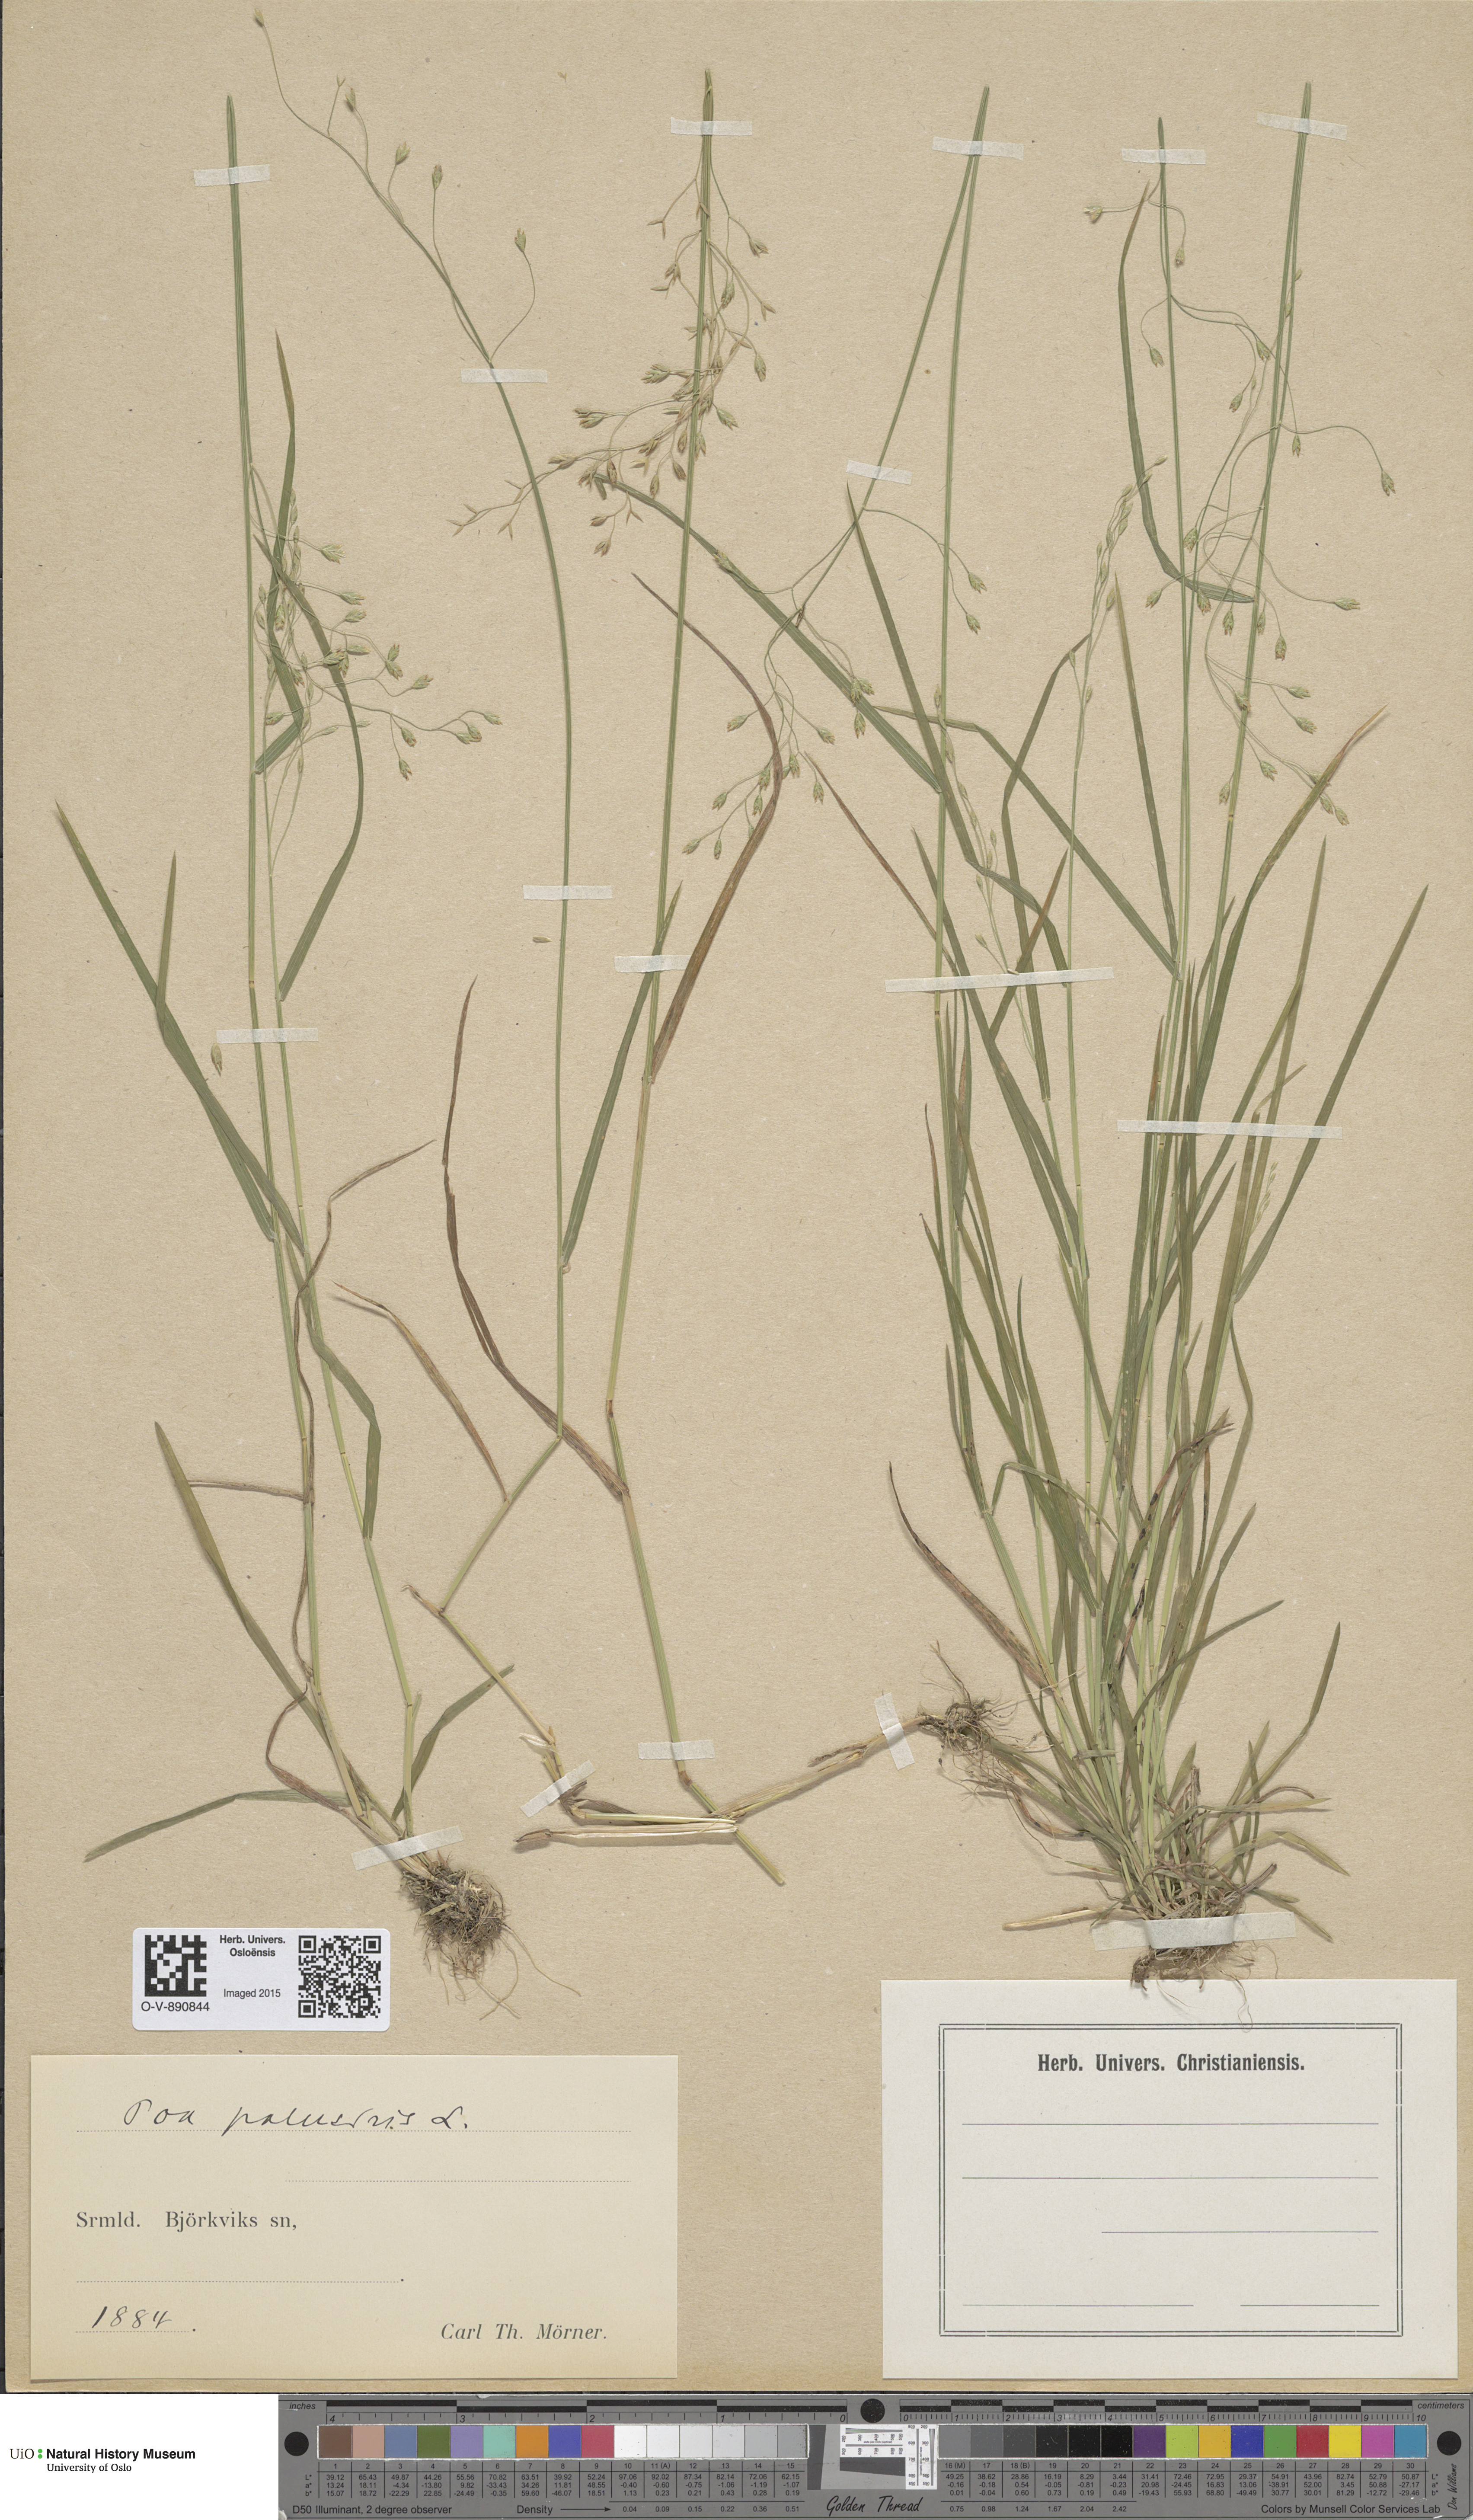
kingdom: Plantae
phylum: Tracheophyta
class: Liliopsida
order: Poales
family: Poaceae
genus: Poa
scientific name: Poa palustris
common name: Swamp meadow-grass
